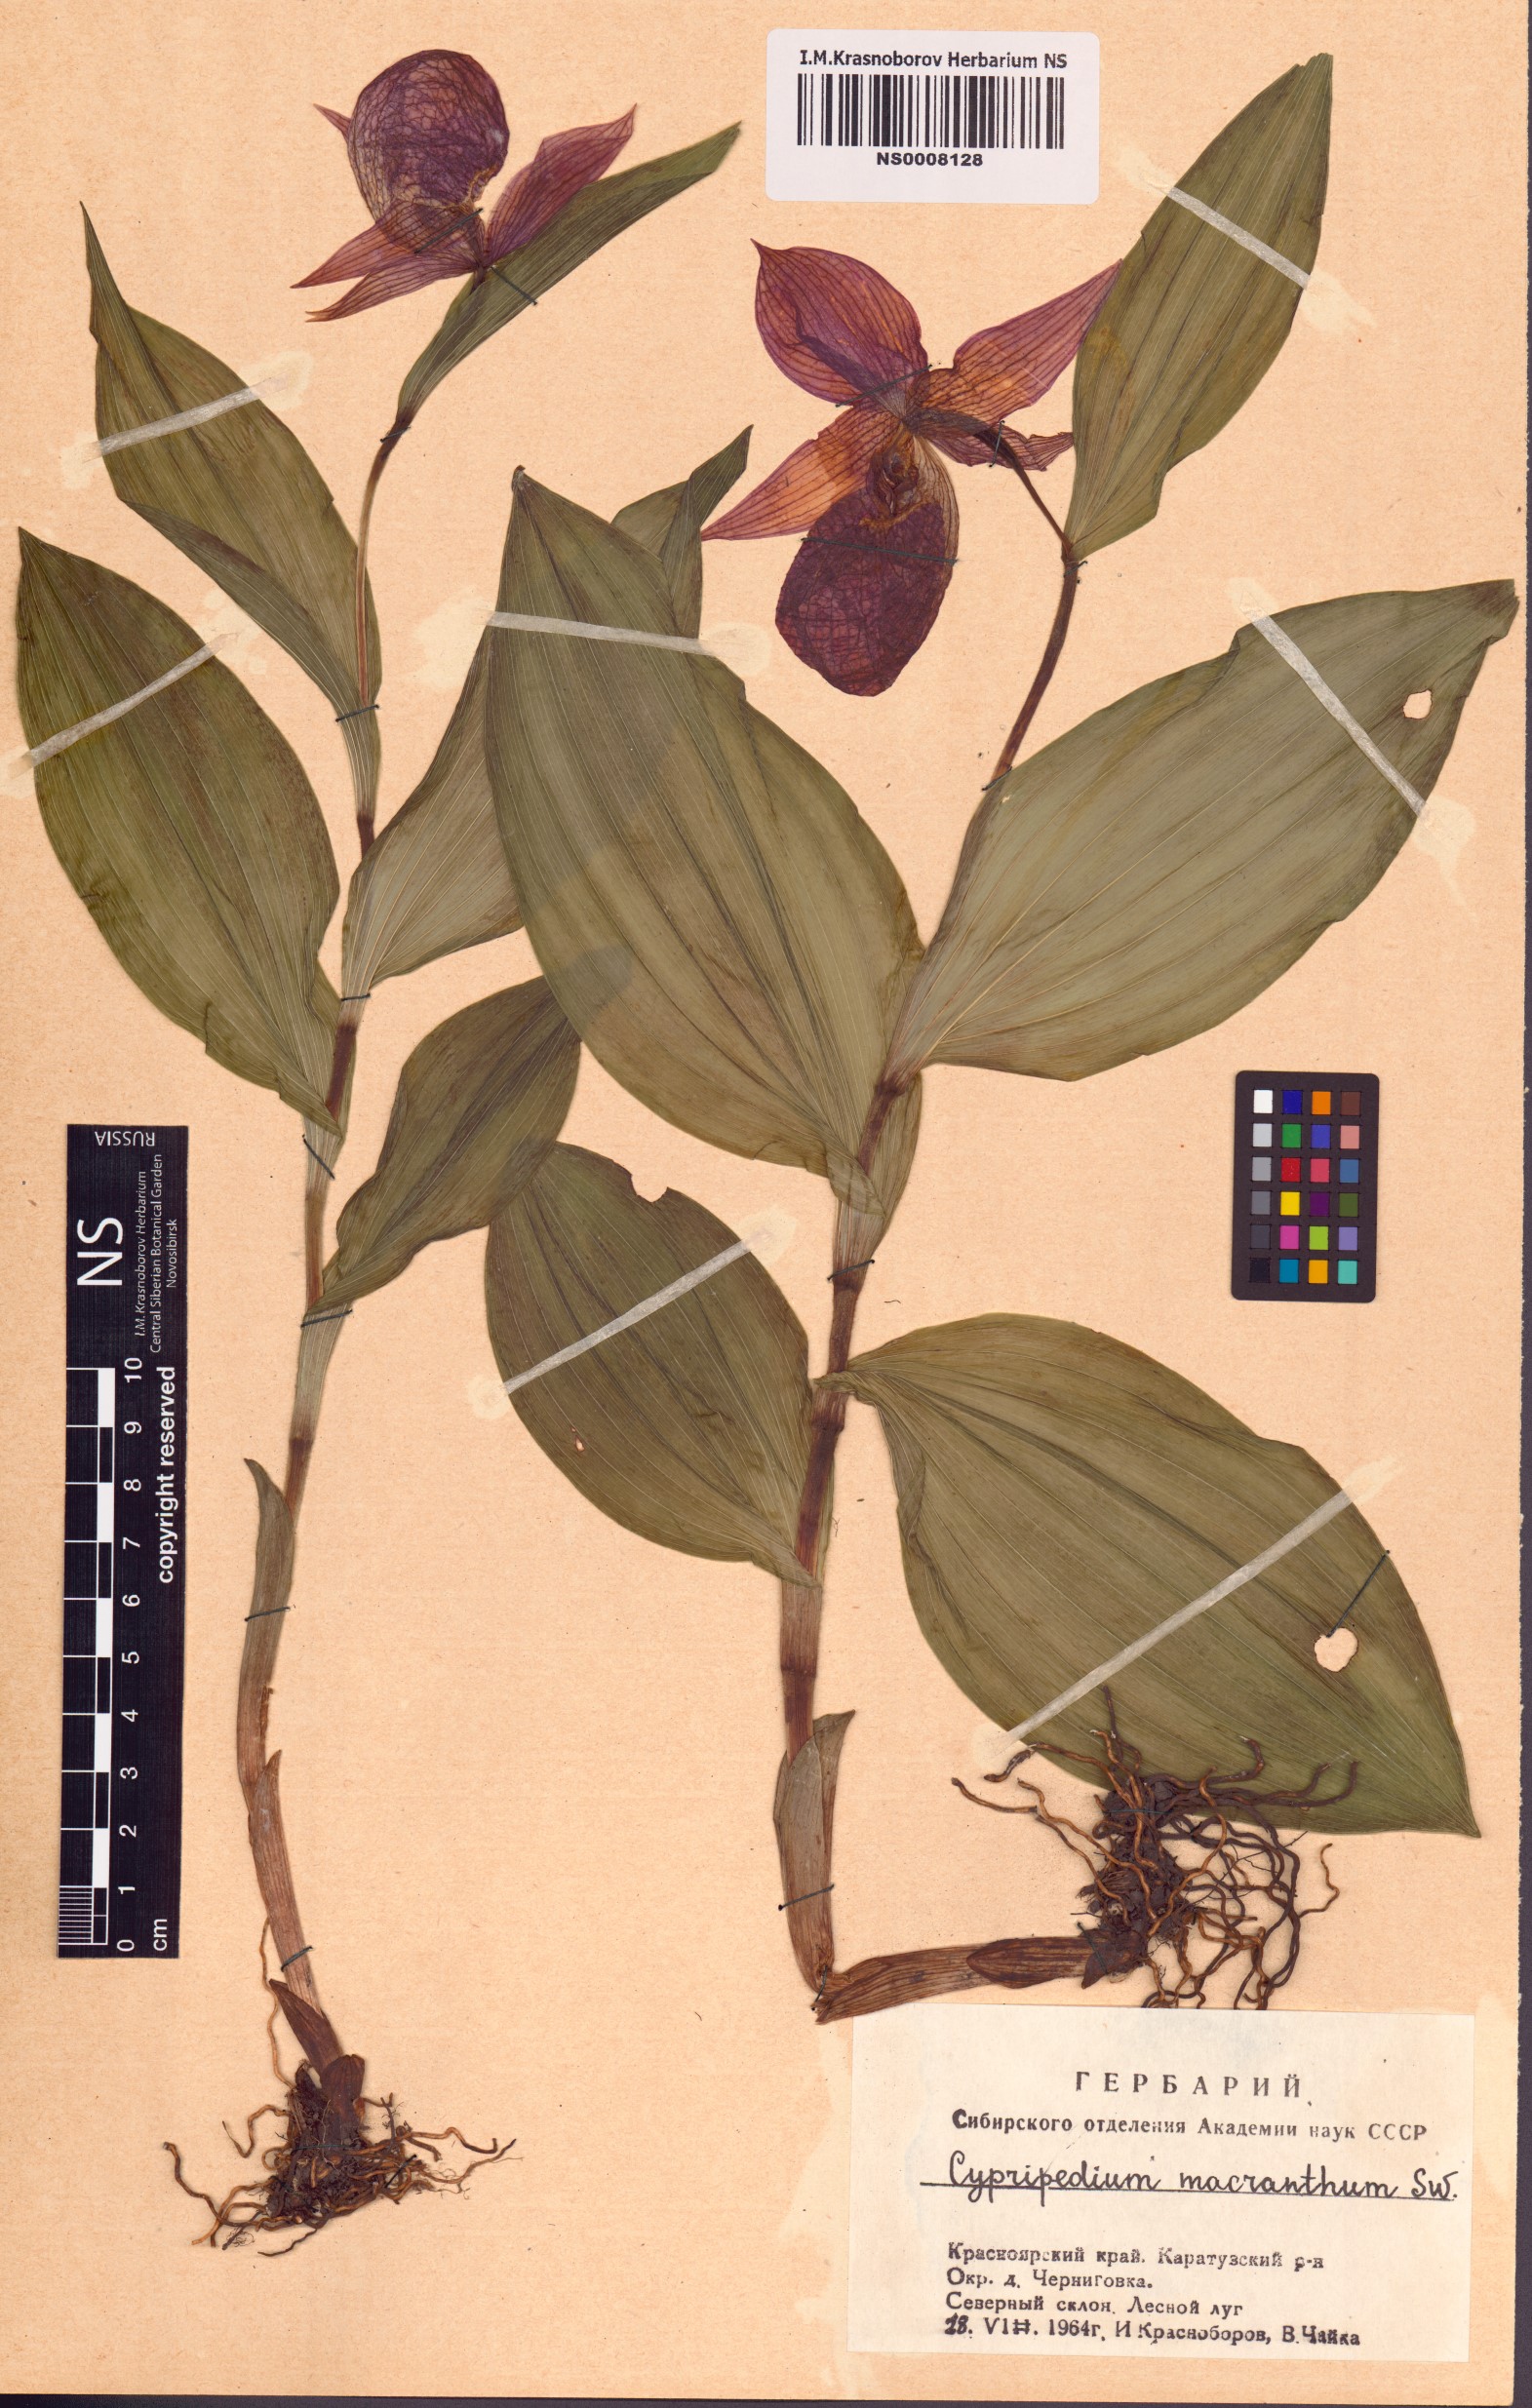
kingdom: Plantae
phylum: Tracheophyta
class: Liliopsida
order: Asparagales
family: Orchidaceae
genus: Cypripedium
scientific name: Cypripedium macranthos
